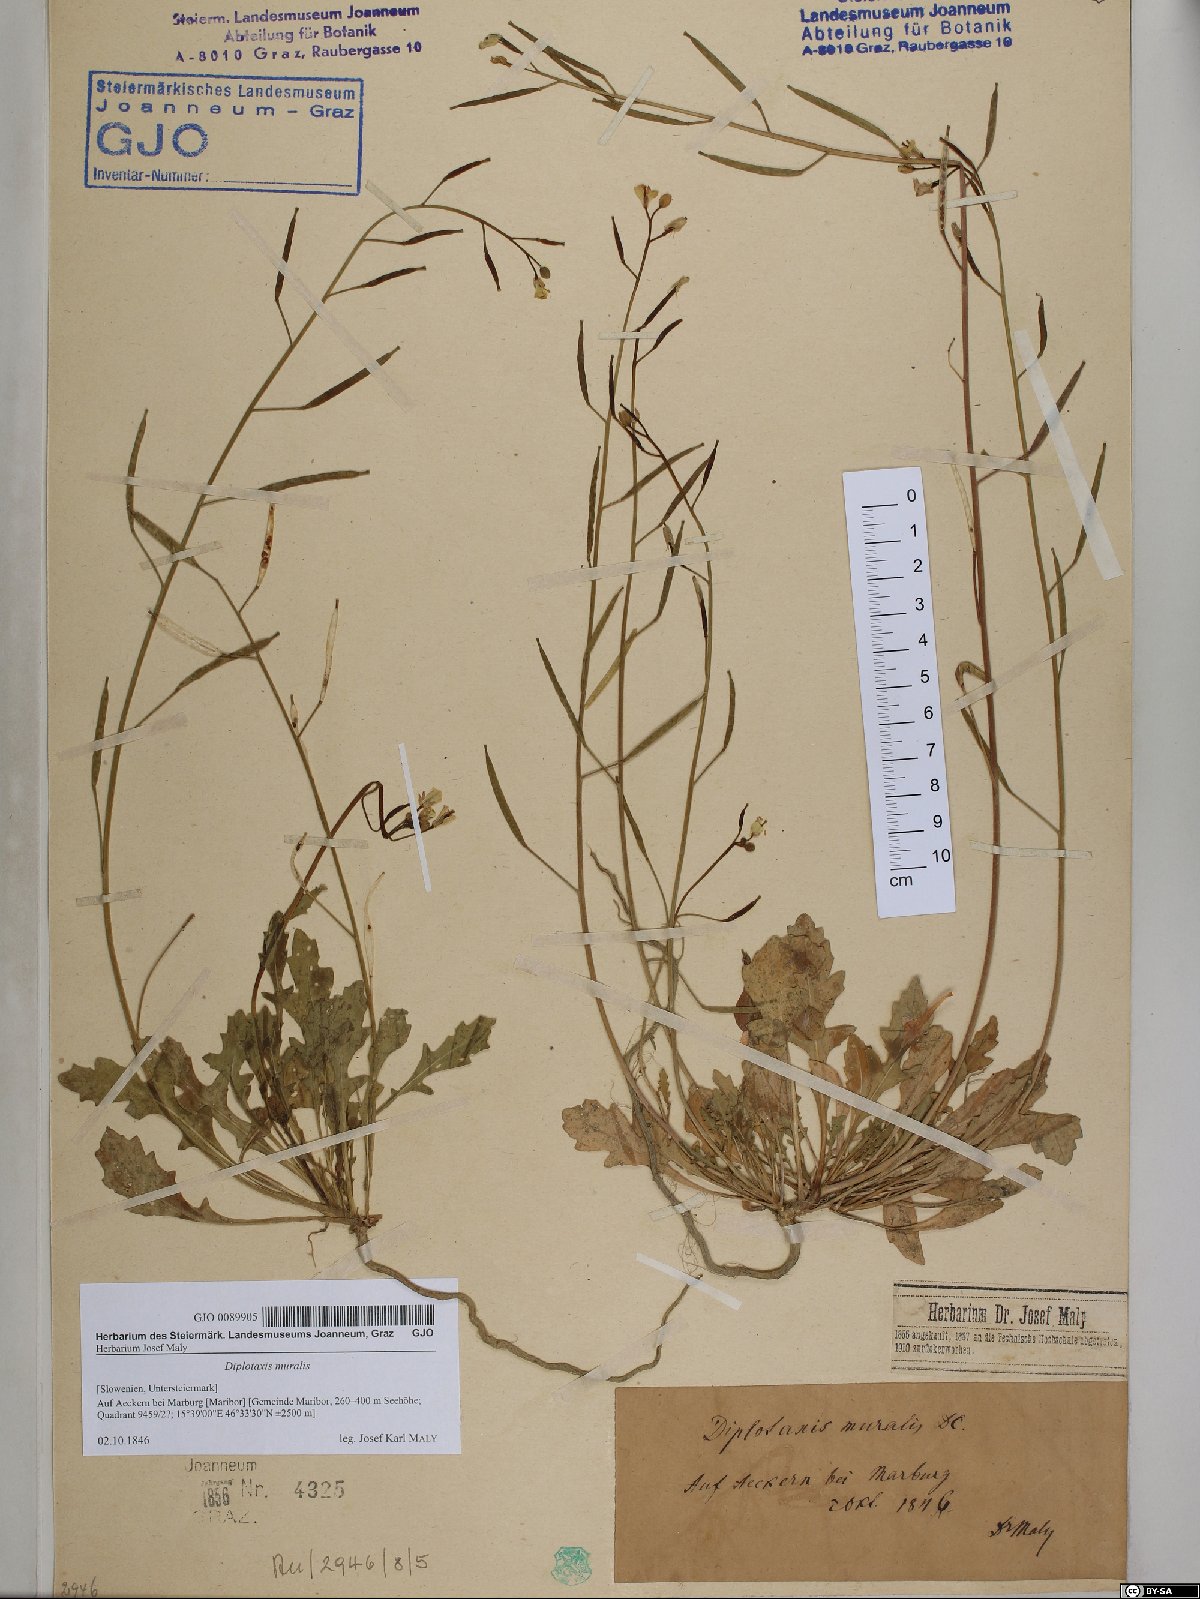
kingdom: Plantae
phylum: Tracheophyta
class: Magnoliopsida
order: Brassicales
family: Brassicaceae
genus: Diplotaxis
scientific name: Diplotaxis muralis
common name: Annual wall-rocket
